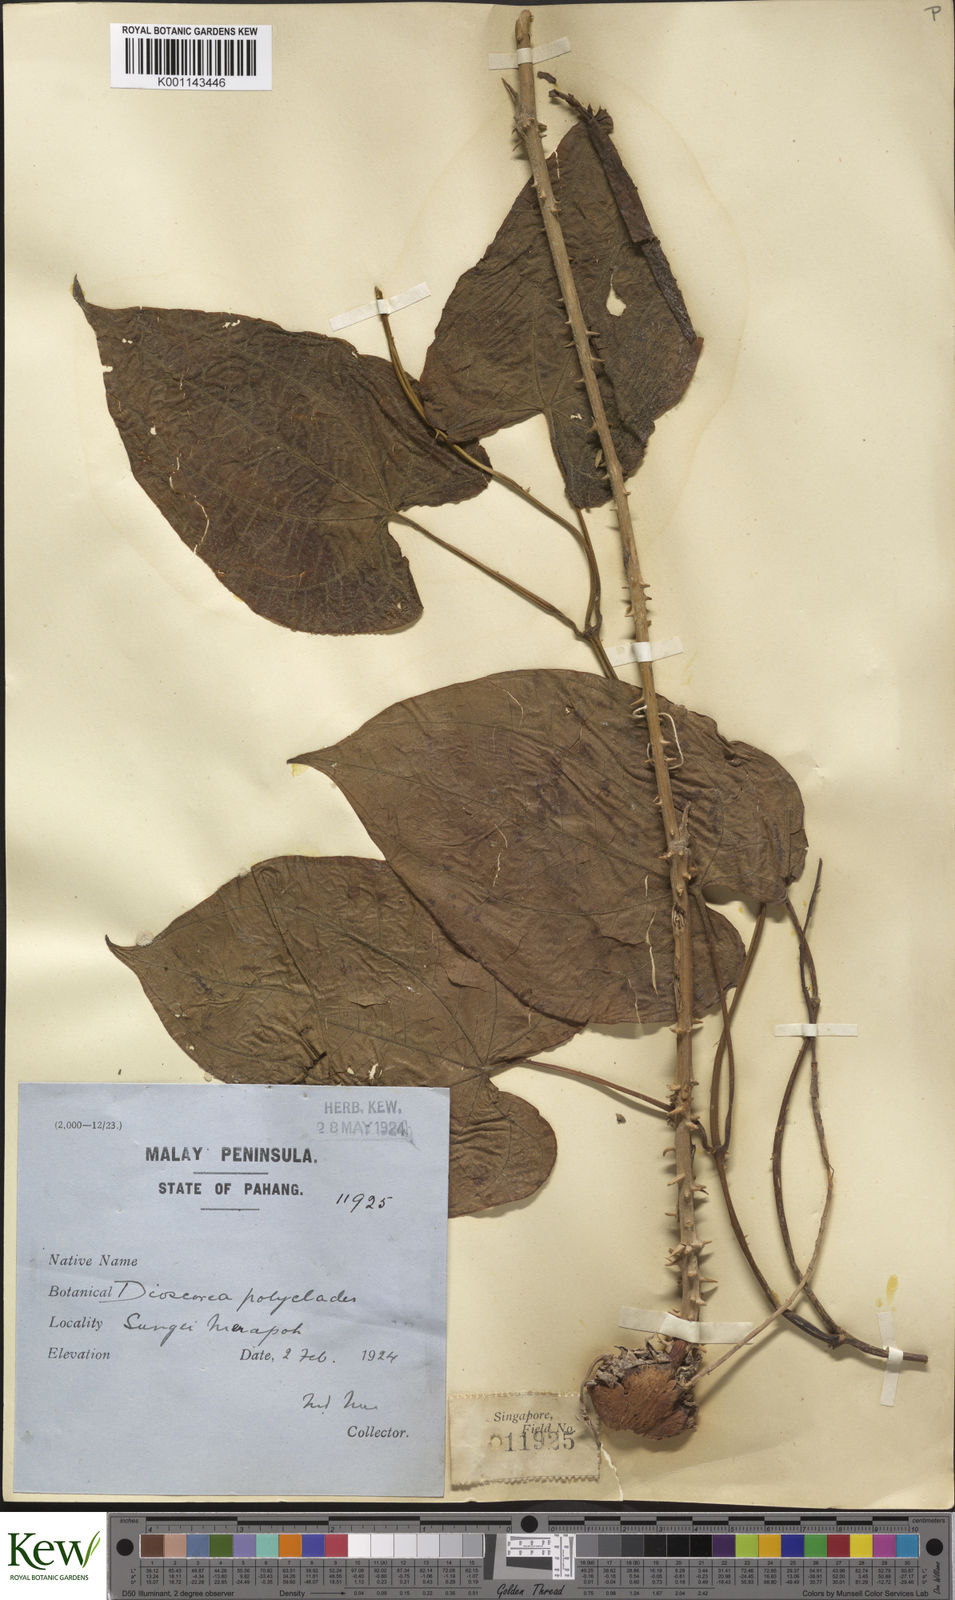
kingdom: Plantae
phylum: Tracheophyta
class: Liliopsida
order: Dioscoreales
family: Dioscoreaceae
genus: Dioscorea
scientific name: Dioscorea polyclados
